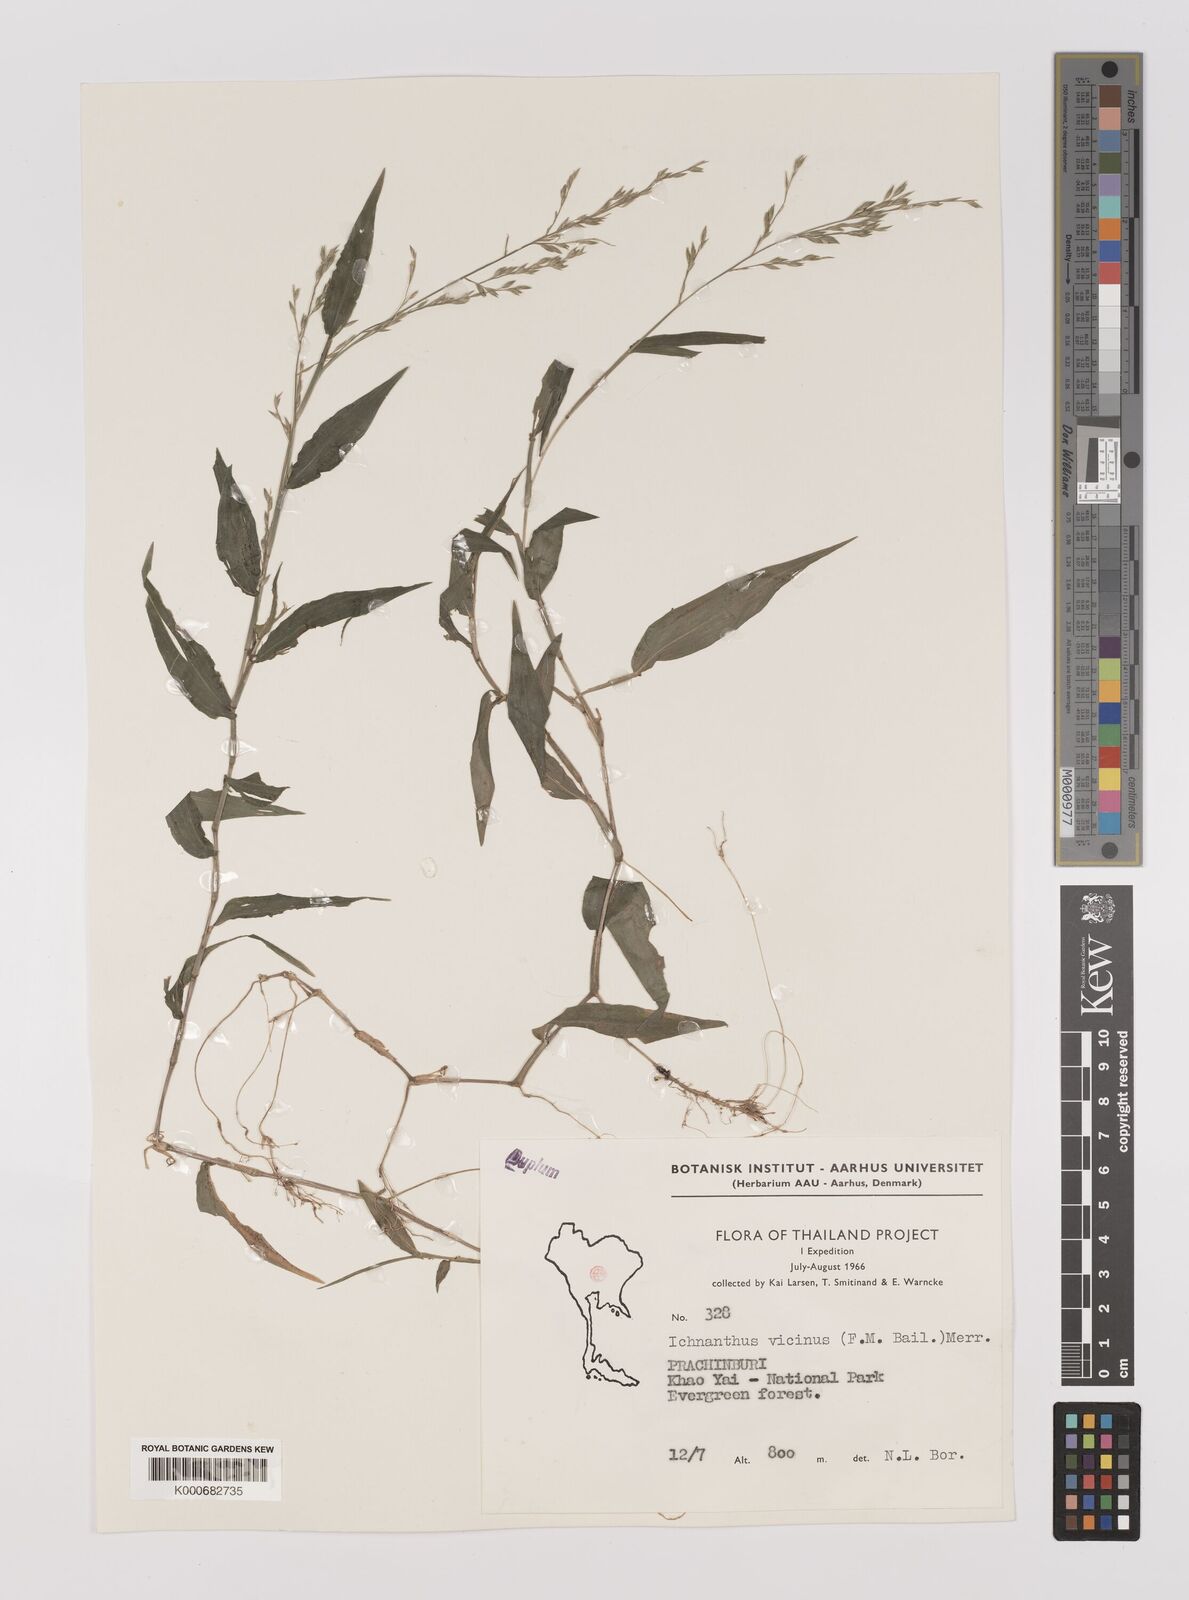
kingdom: Plantae
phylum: Tracheophyta
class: Liliopsida
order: Poales
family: Poaceae
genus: Ichnanthus
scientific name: Ichnanthus pallens
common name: Water grass
